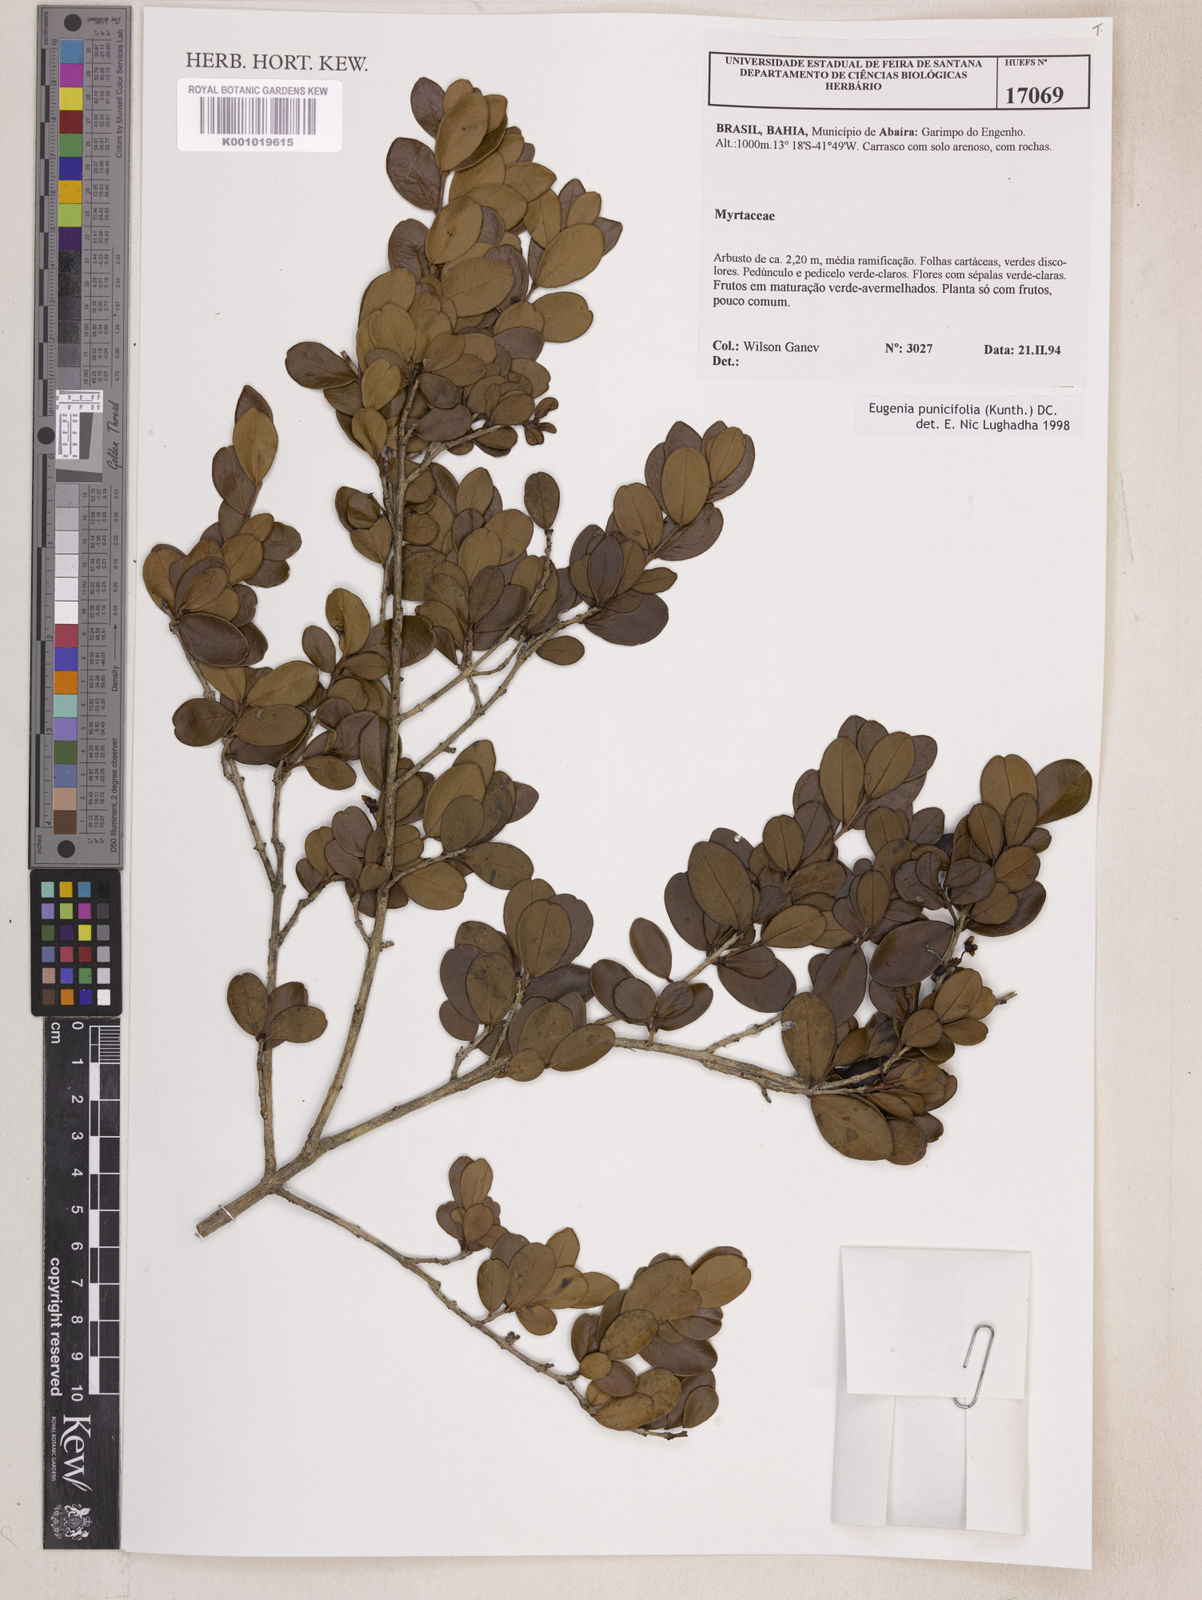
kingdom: Plantae
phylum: Tracheophyta
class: Magnoliopsida
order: Myrtales
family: Myrtaceae
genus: Eugenia
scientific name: Eugenia punicifolia
